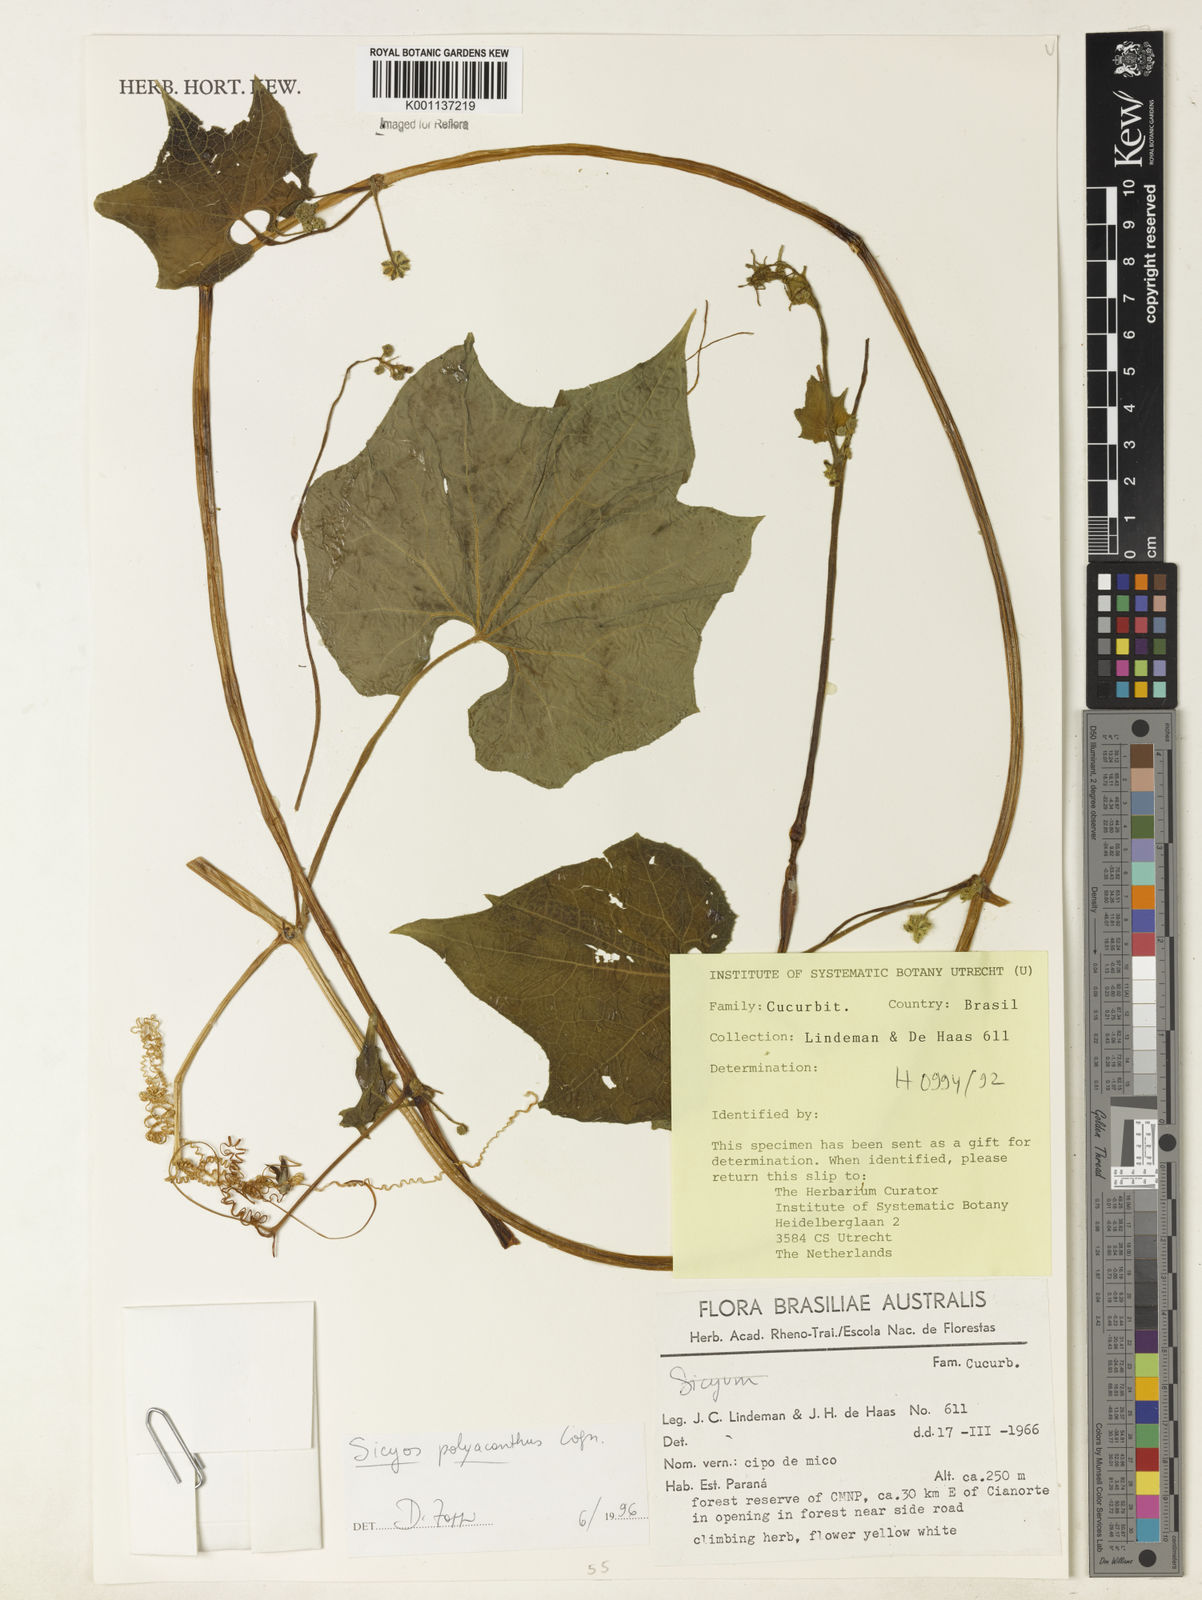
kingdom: Plantae
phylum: Tracheophyta
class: Magnoliopsida
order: Cucurbitales
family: Cucurbitaceae
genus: Sicyos
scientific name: Sicyos polyacanthos
